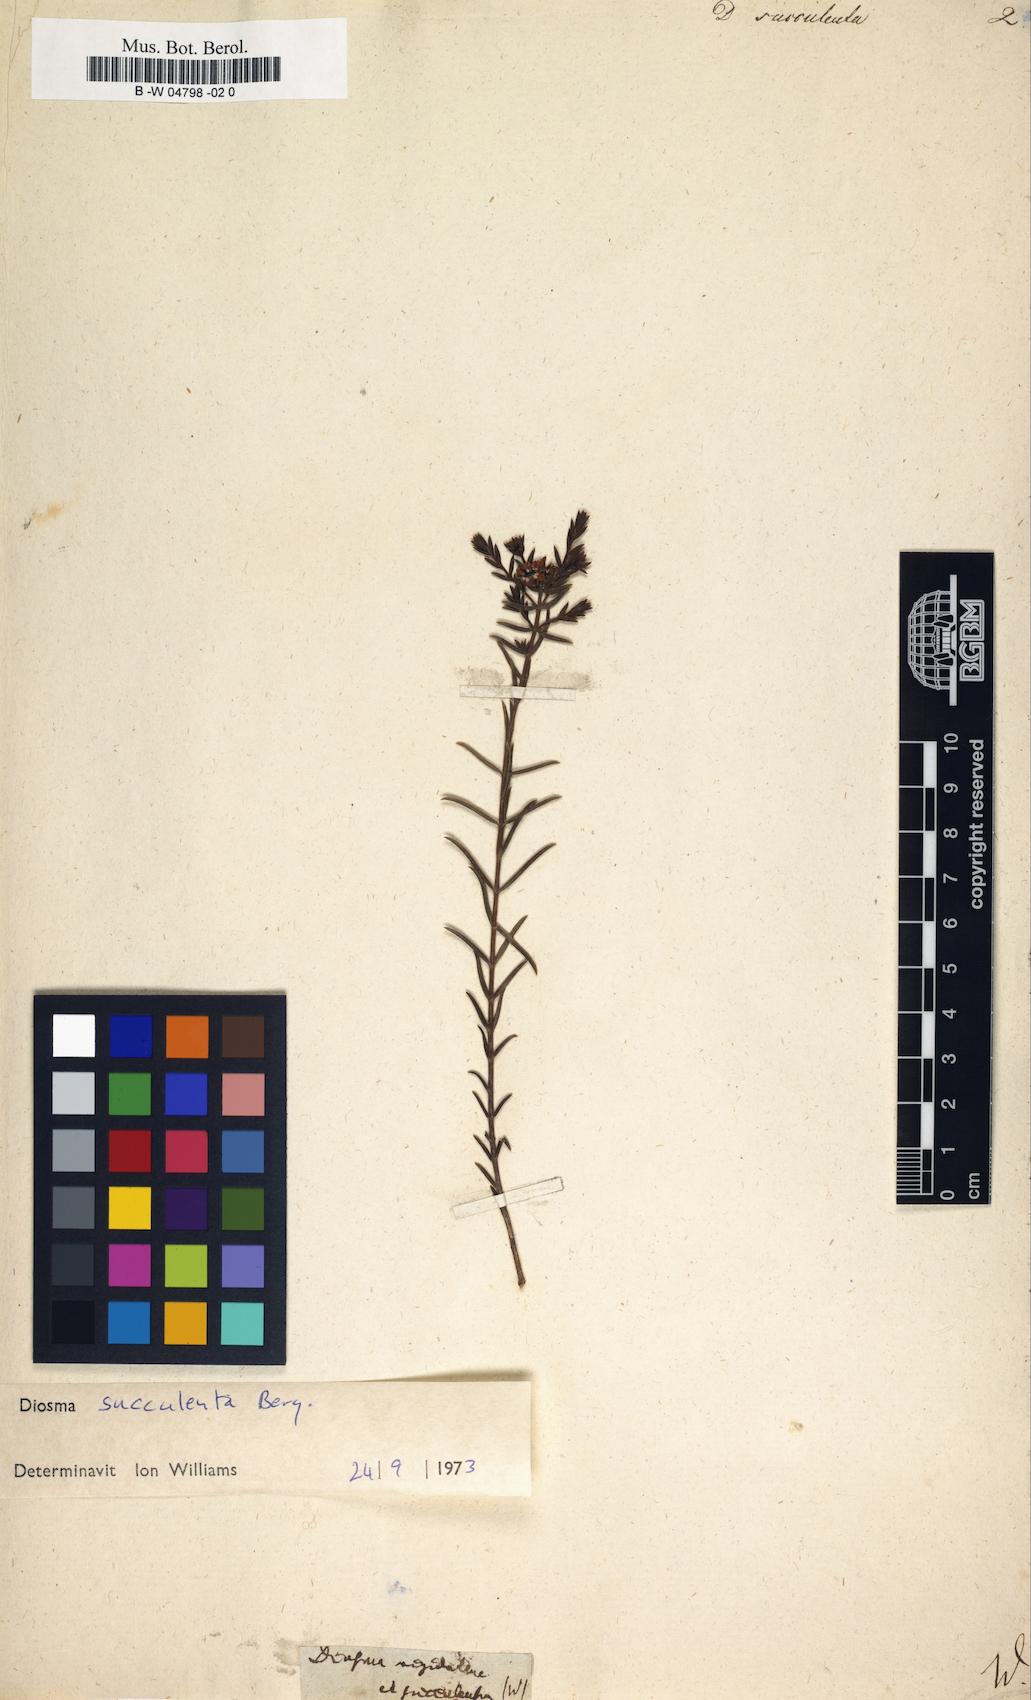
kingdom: Plantae
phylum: Tracheophyta
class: Magnoliopsida
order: Sapindales
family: Rutaceae
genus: Diosma
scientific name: Diosma oppositifolia
